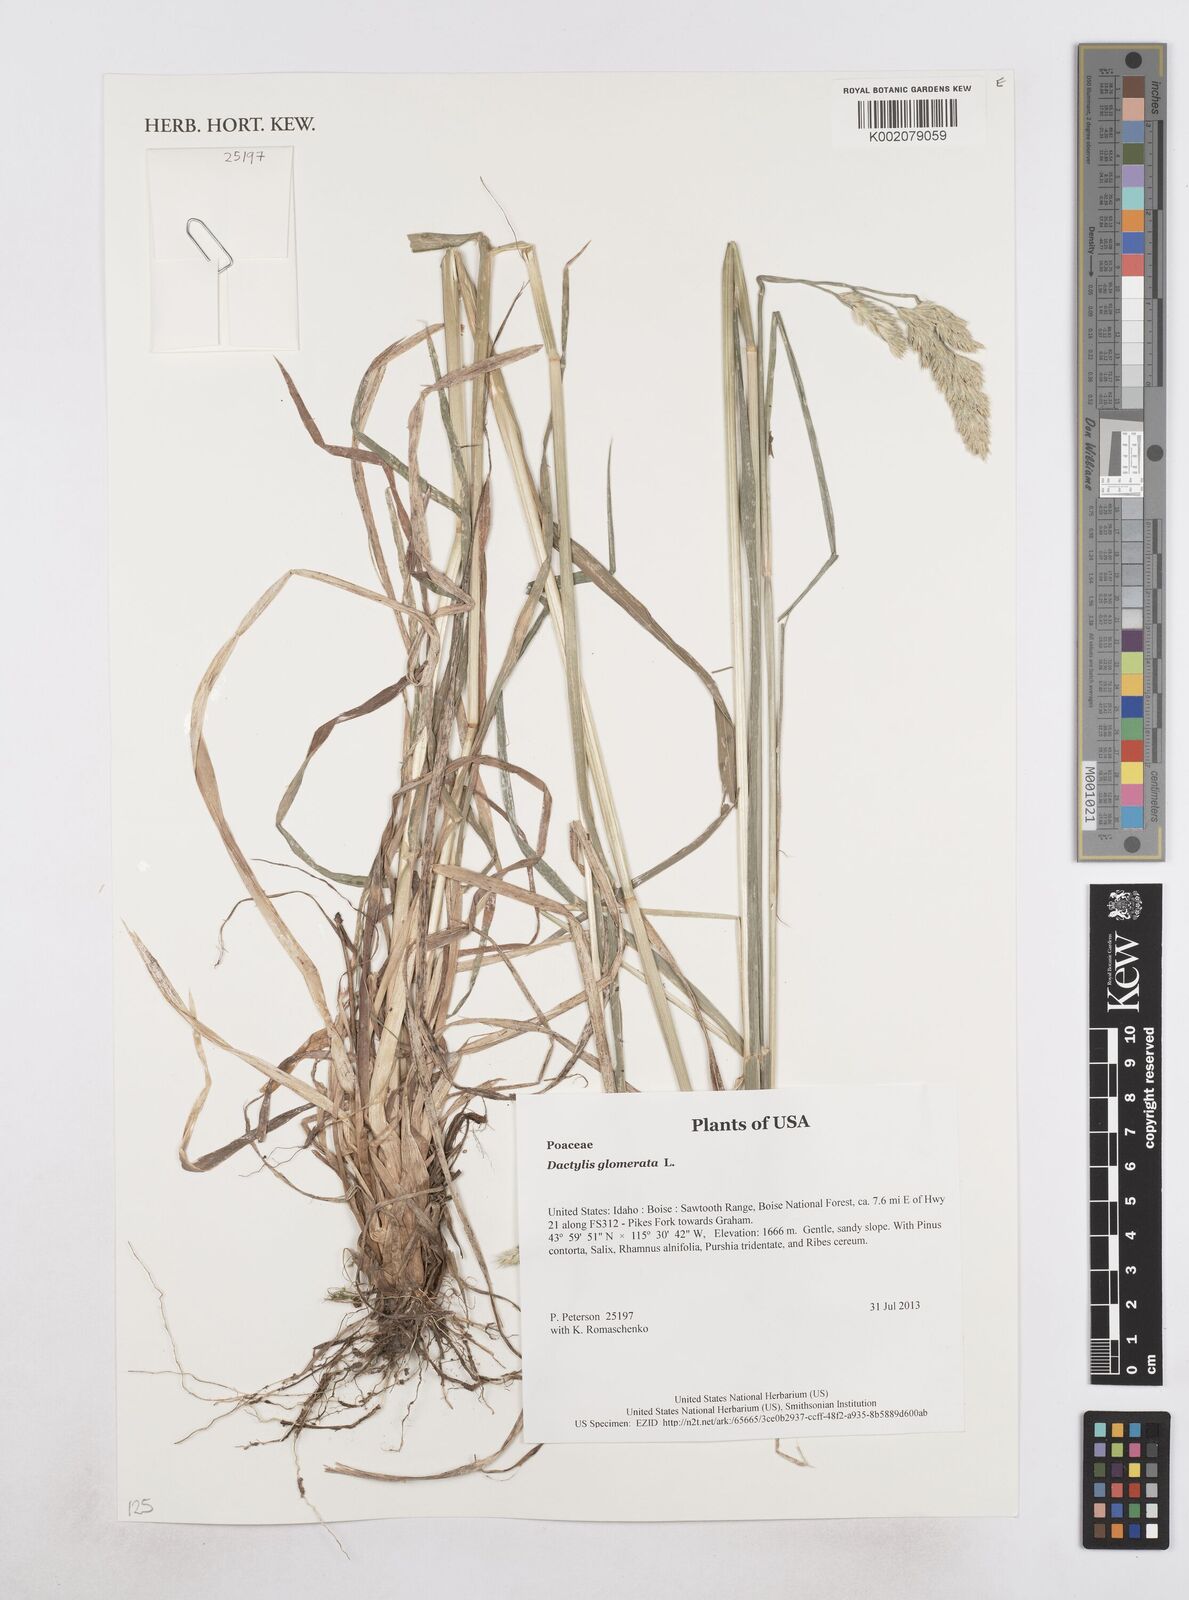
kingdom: Plantae
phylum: Tracheophyta
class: Liliopsida
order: Poales
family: Poaceae
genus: Dactylis
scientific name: Dactylis glomerata
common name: Orchardgrass
